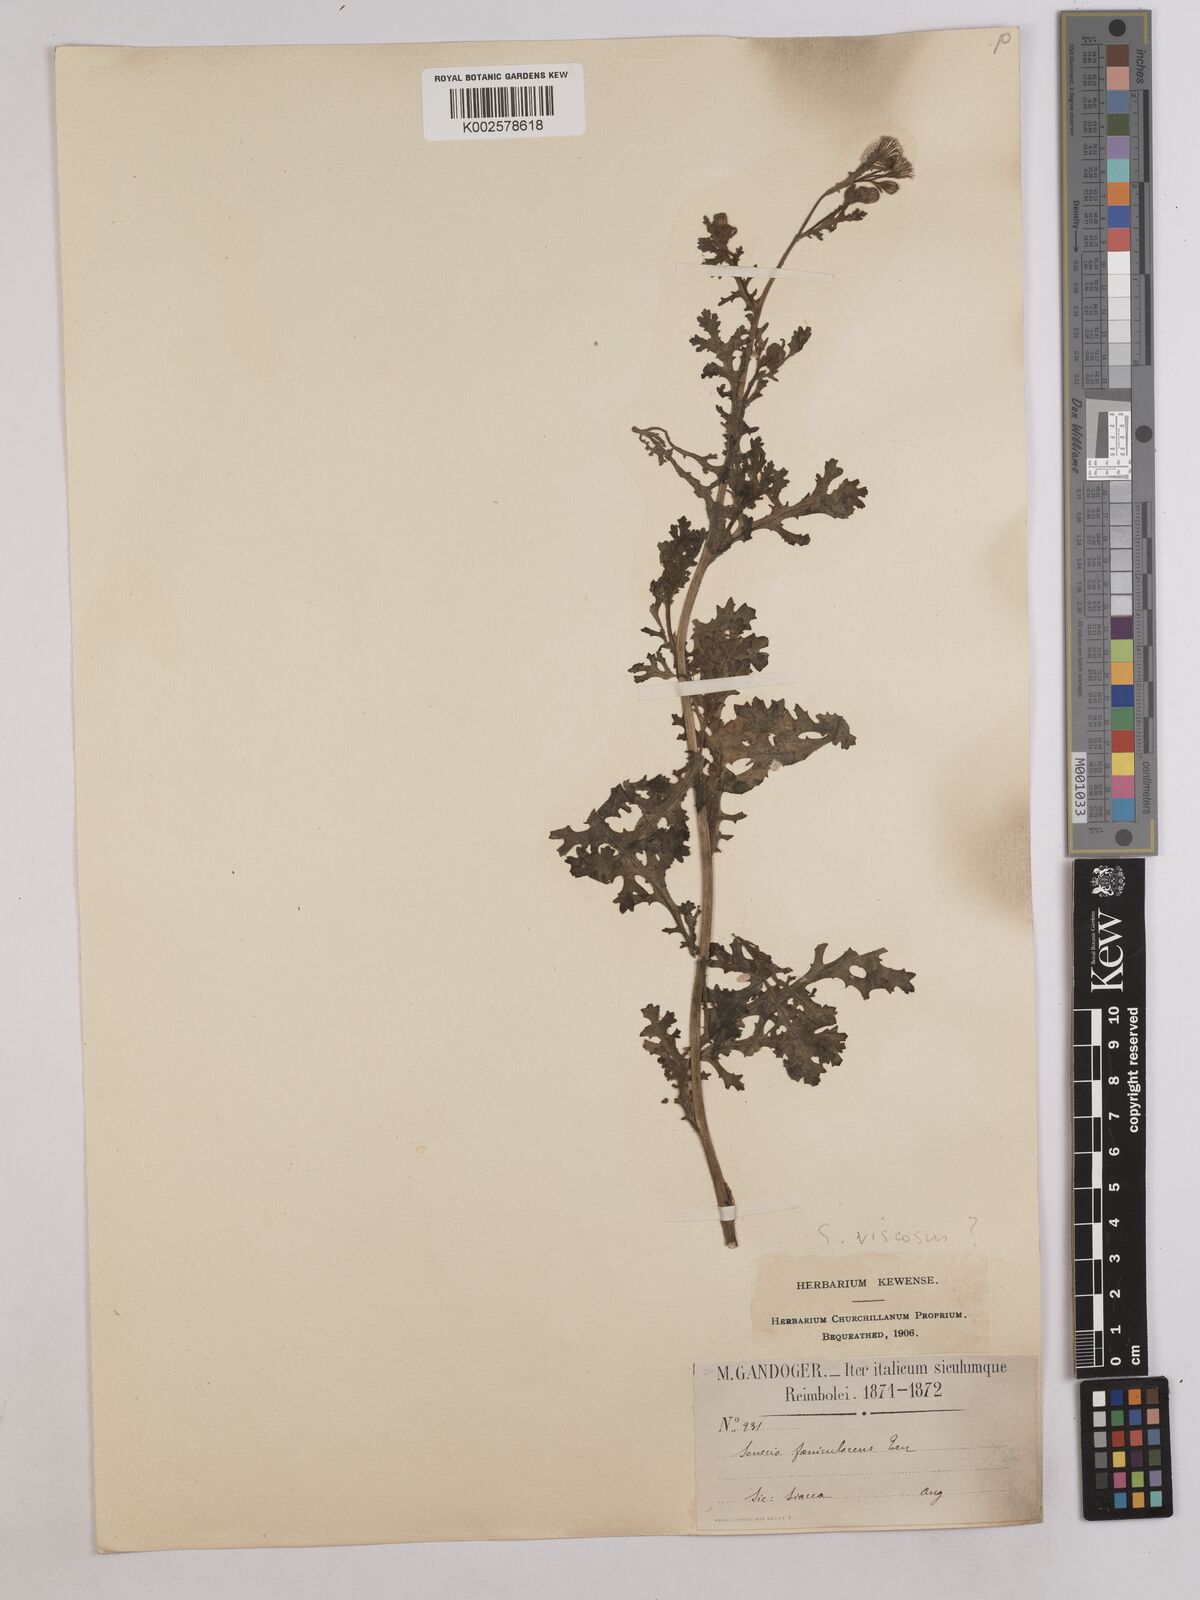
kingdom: Plantae
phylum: Tracheophyta
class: Magnoliopsida
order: Asterales
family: Asteraceae
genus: Jacobaea
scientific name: Jacobaea vulgaris
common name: Stinking willie
